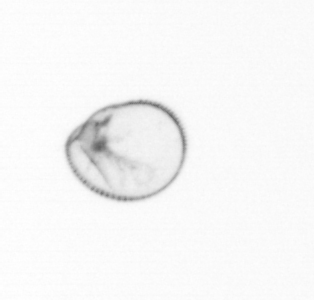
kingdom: Chromista
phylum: Myzozoa
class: Dinophyceae
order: Noctilucales
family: Noctilucaceae
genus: Noctiluca
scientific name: Noctiluca scintillans
